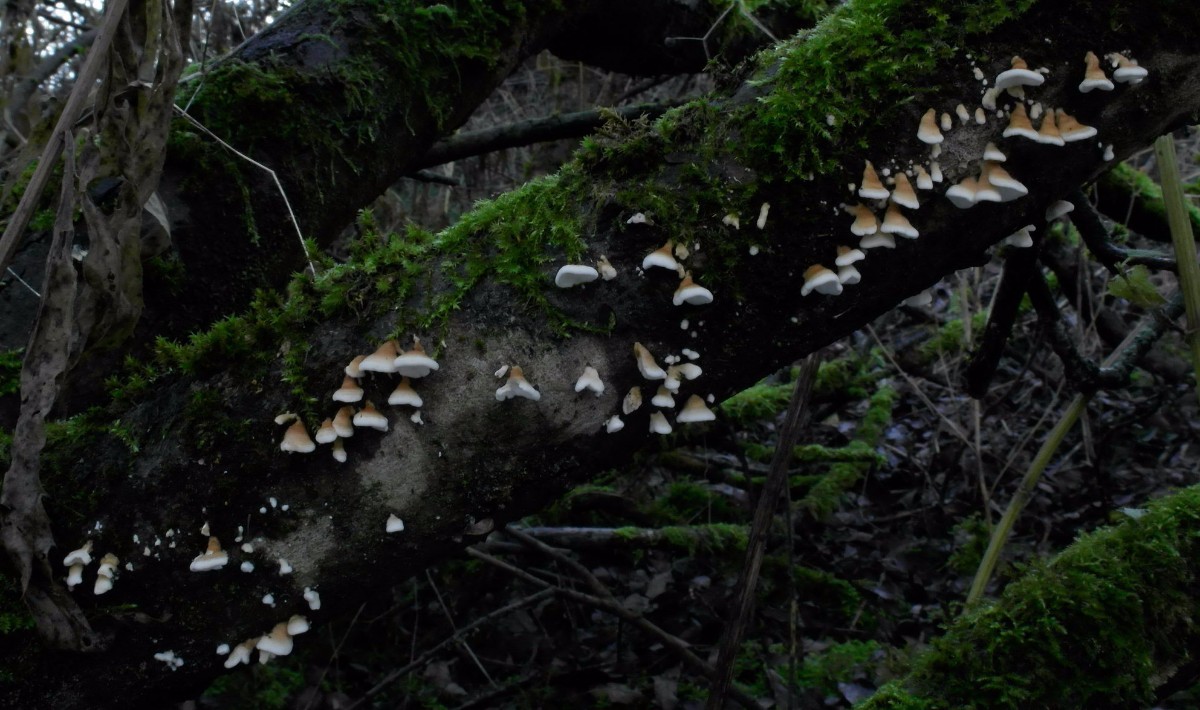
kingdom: Fungi
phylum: Basidiomycota
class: Agaricomycetes
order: Amylocorticiales
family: Amylocorticiaceae
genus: Plicaturopsis
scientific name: Plicaturopsis crispa
